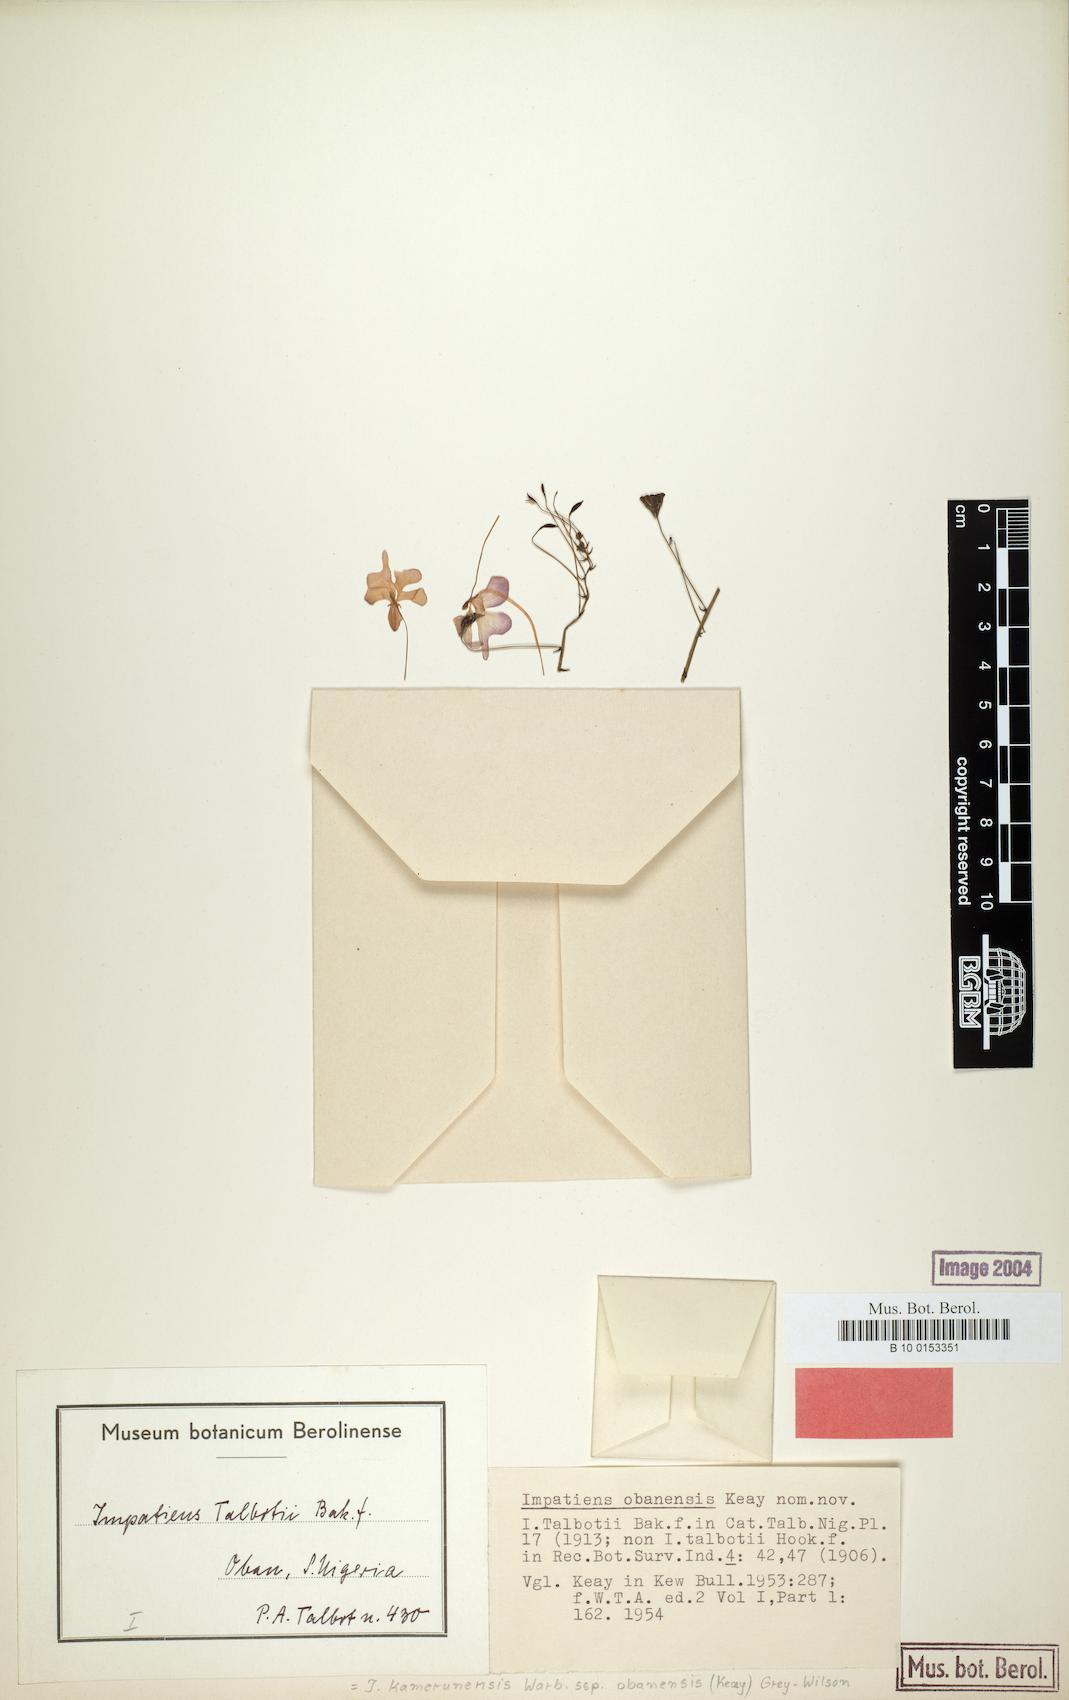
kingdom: Plantae
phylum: Tracheophyta
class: Magnoliopsida
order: Ericales
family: Balsaminaceae
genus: Impatiens
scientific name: Impatiens kamerunensis
